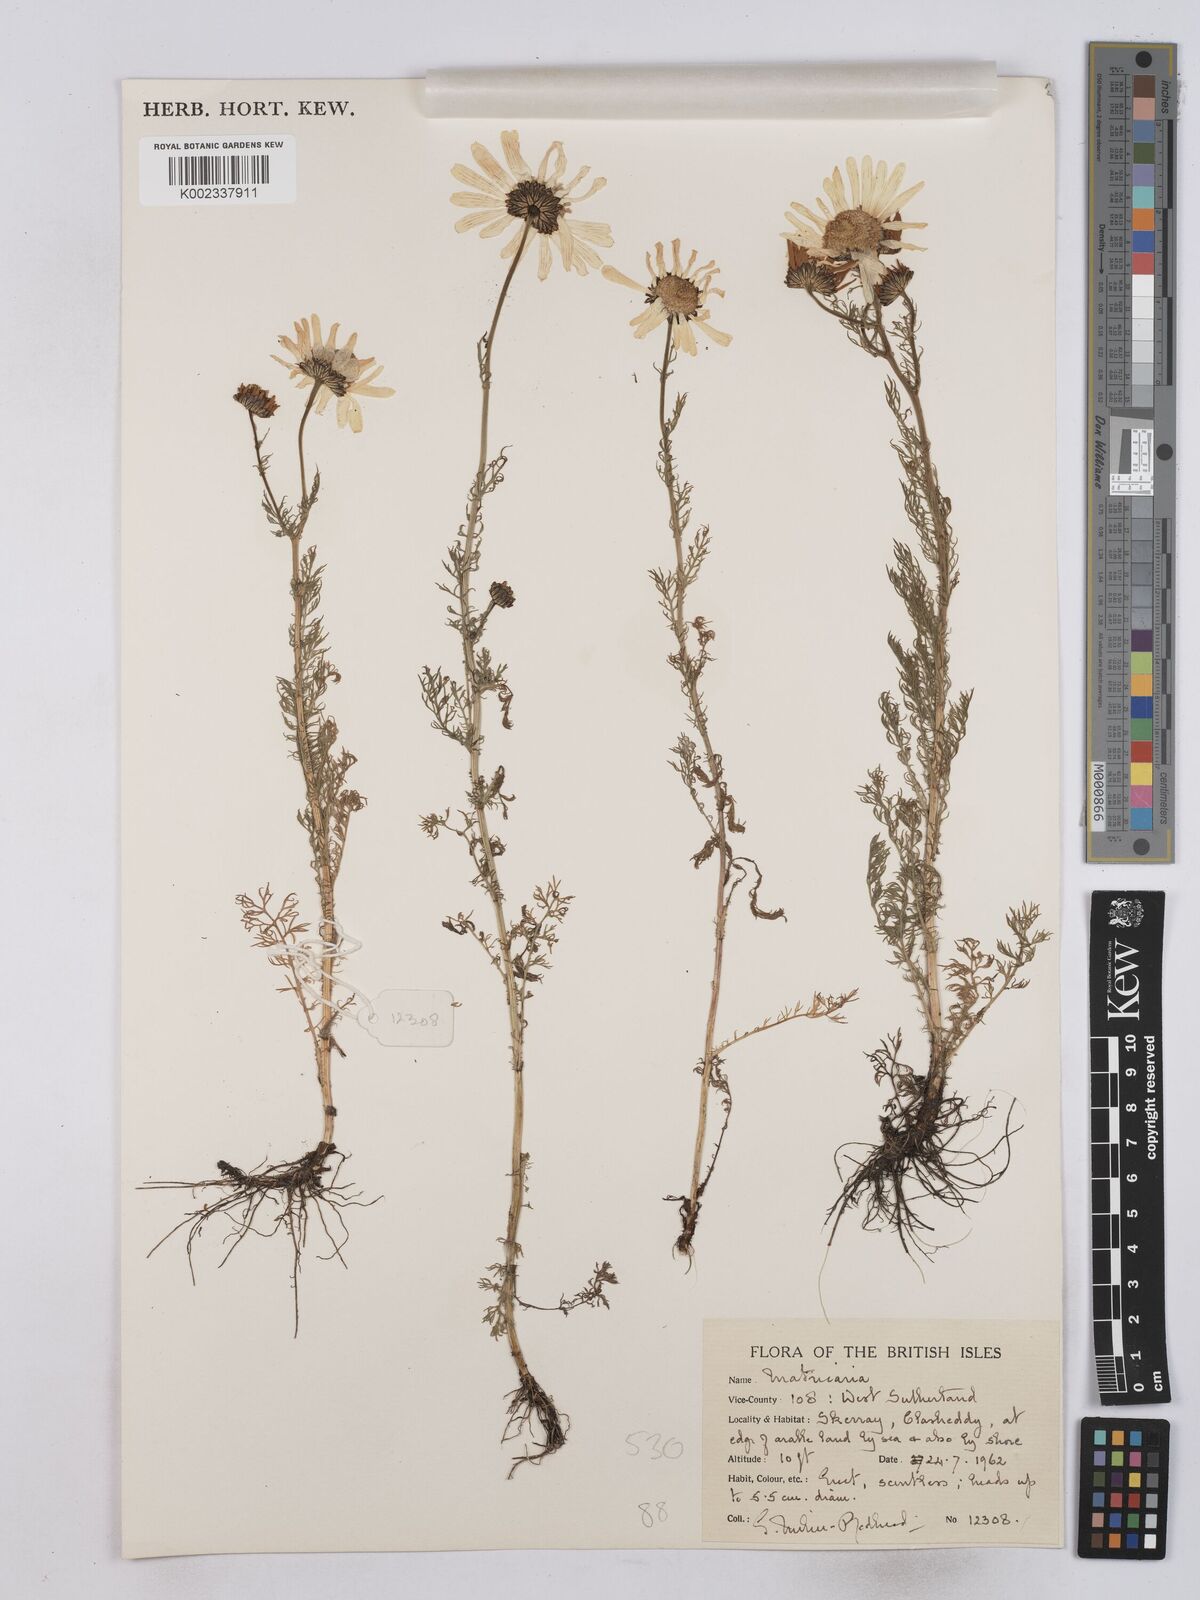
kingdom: Plantae
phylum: Tracheophyta
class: Magnoliopsida
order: Asterales
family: Asteraceae
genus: Matricaria
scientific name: Matricaria discoidea
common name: Disc mayweed
